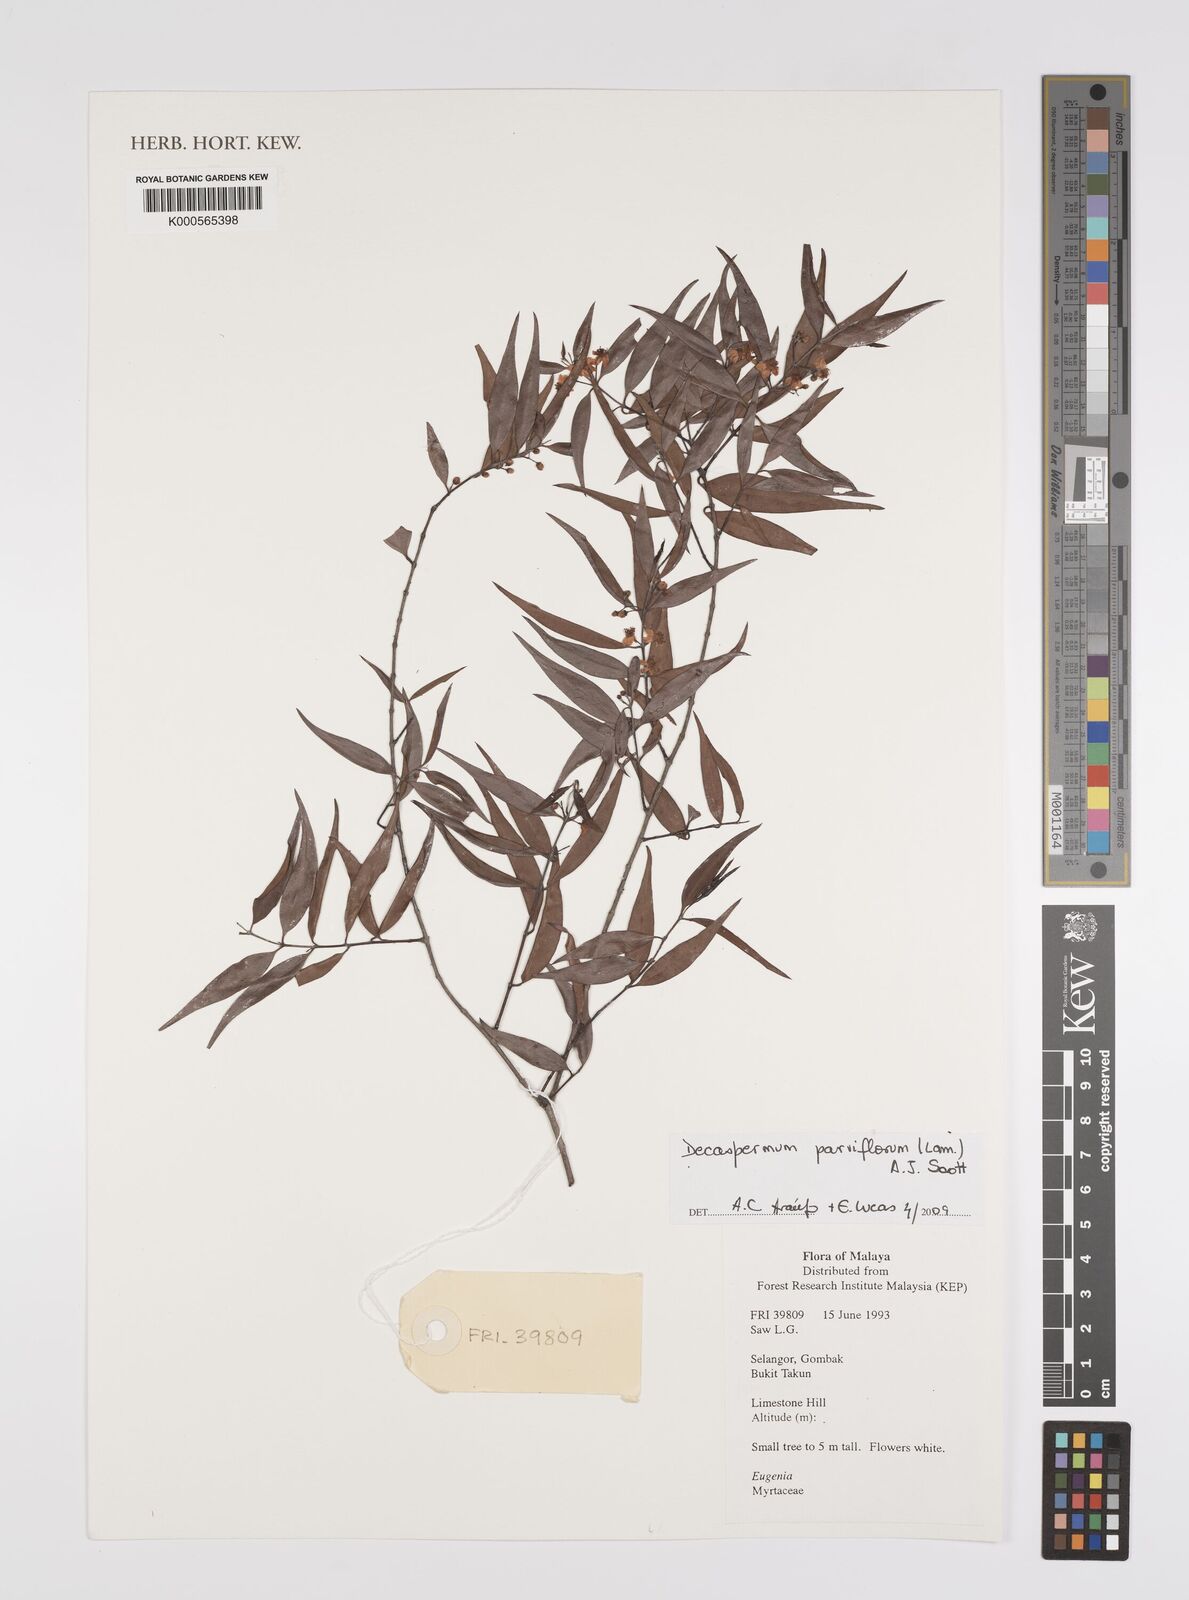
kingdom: Plantae
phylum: Tracheophyta
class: Magnoliopsida
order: Myrtales
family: Myrtaceae
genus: Decaspermum
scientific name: Decaspermum parviflorum
